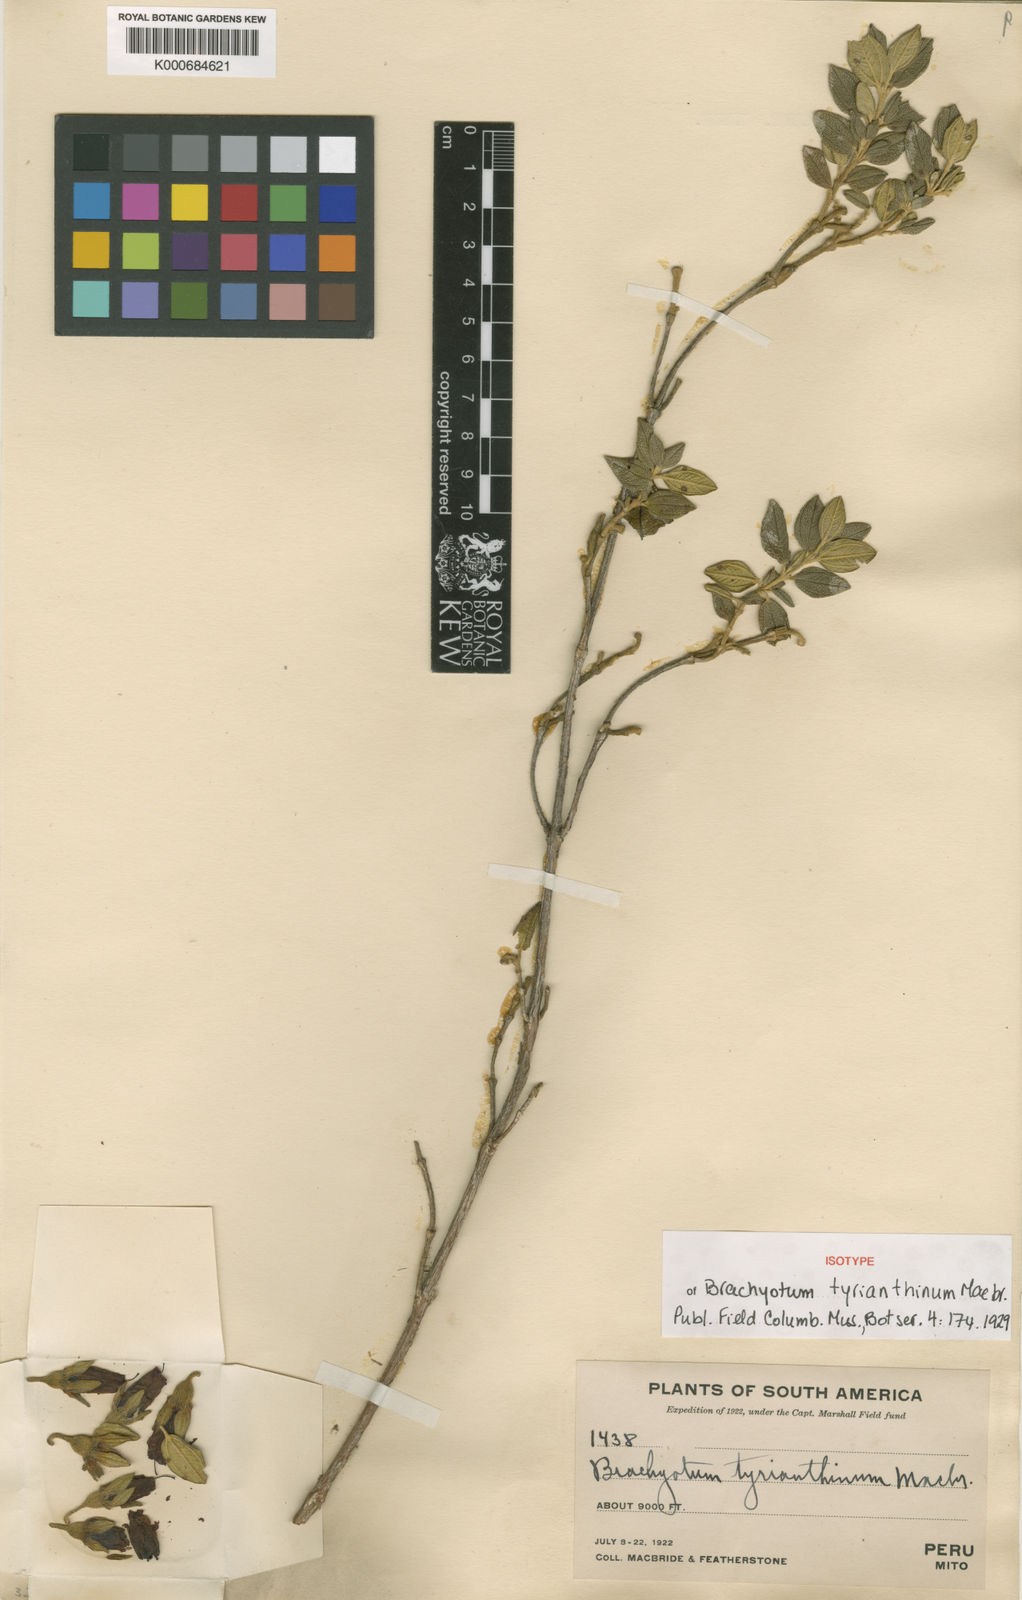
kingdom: Plantae
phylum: Tracheophyta
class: Magnoliopsida
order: Myrtales
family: Melastomataceae
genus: Brachyotum
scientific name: Brachyotum tyrianthinum
